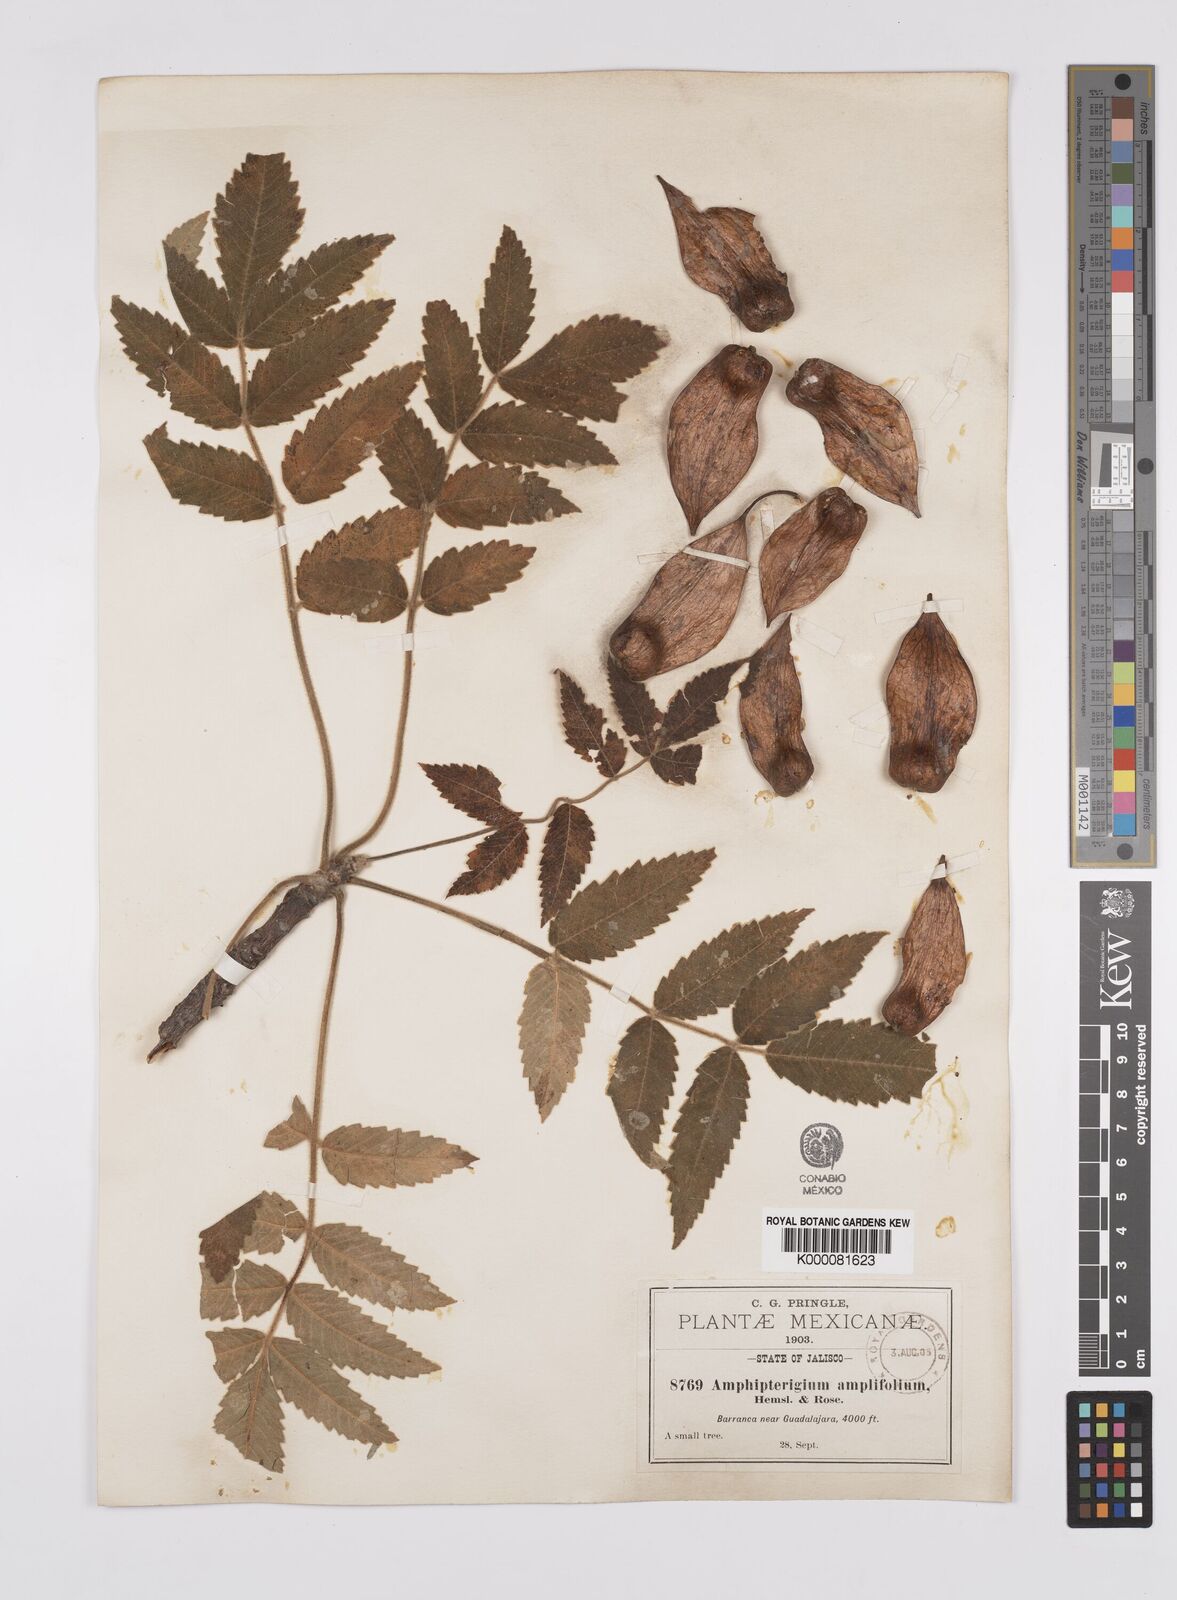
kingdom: Plantae
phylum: Tracheophyta
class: Magnoliopsida
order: Sapindales
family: Anacardiaceae
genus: Amphipterygium
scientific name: Amphipterygium
